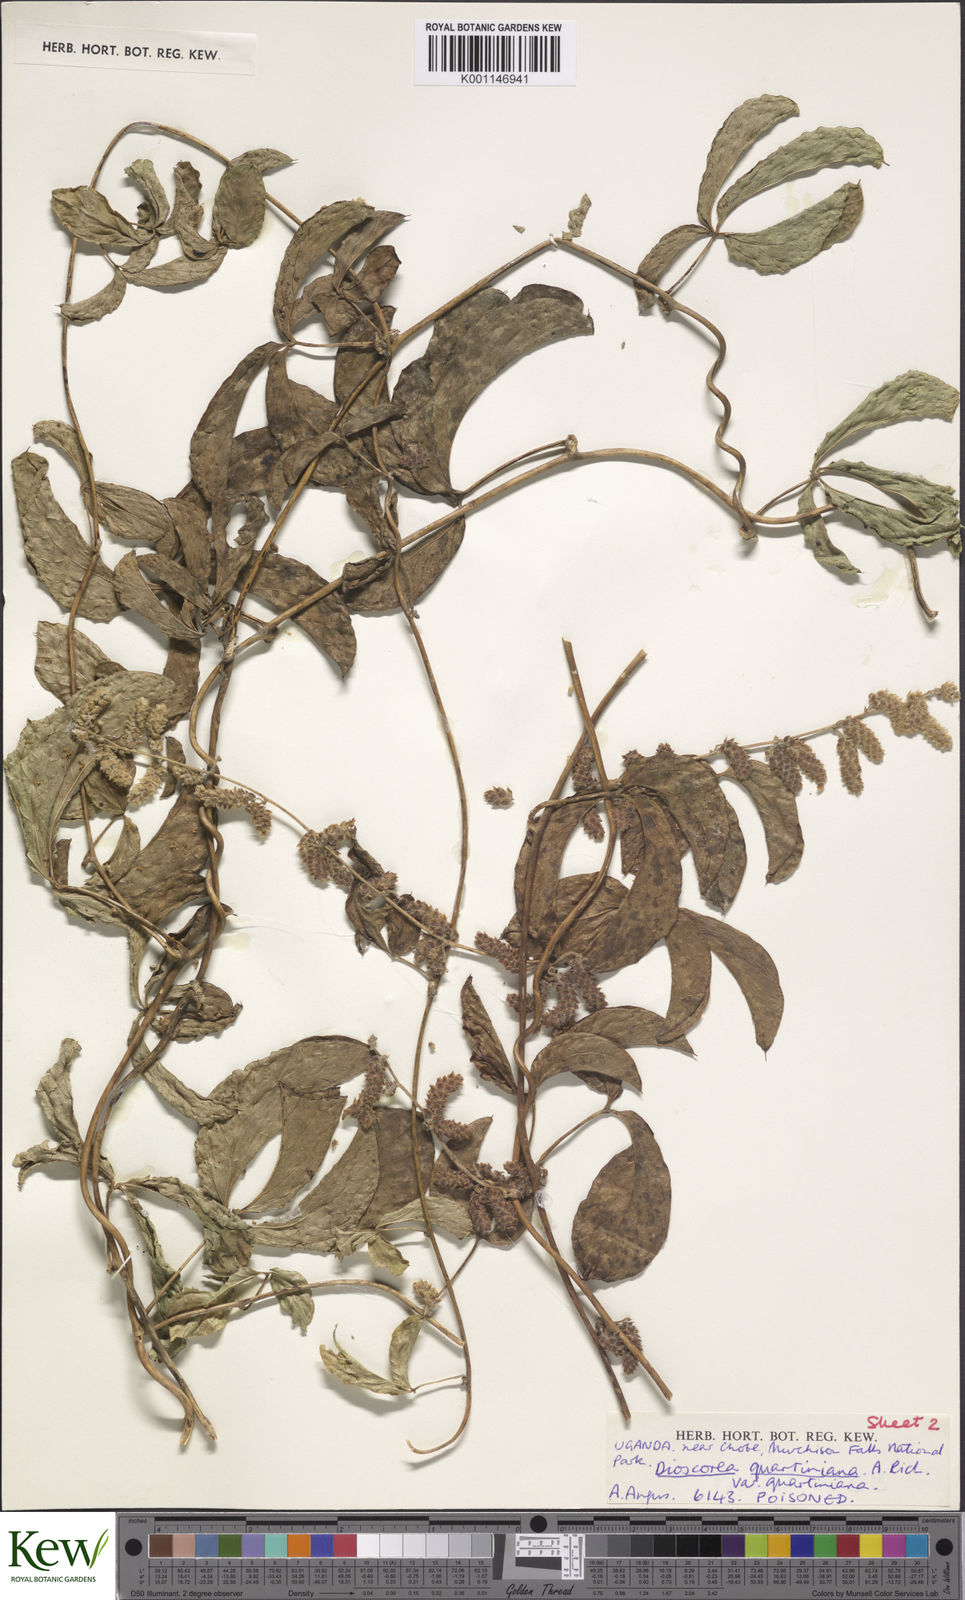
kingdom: Plantae
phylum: Tracheophyta
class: Liliopsida
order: Dioscoreales
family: Dioscoreaceae
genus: Dioscorea
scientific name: Dioscorea quartiniana
